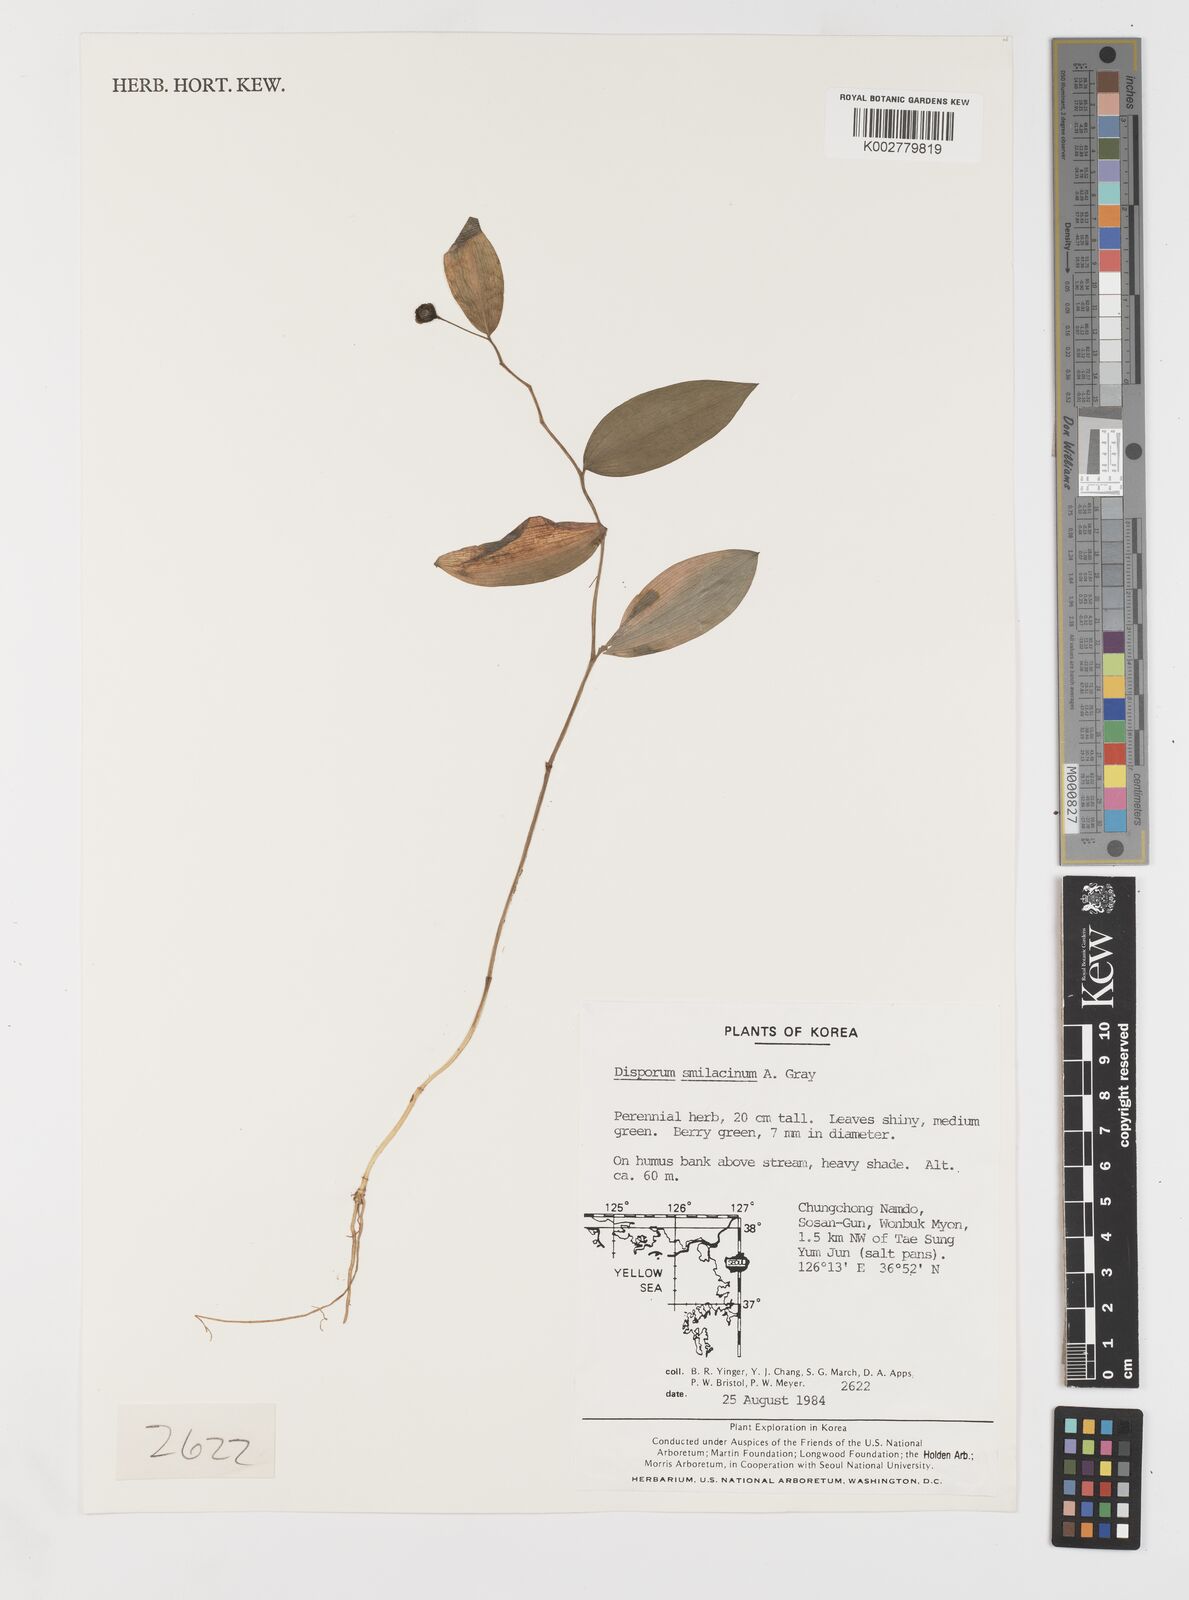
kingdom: Plantae
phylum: Tracheophyta
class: Liliopsida
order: Liliales
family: Colchicaceae
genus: Disporum
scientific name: Disporum smilacinum
